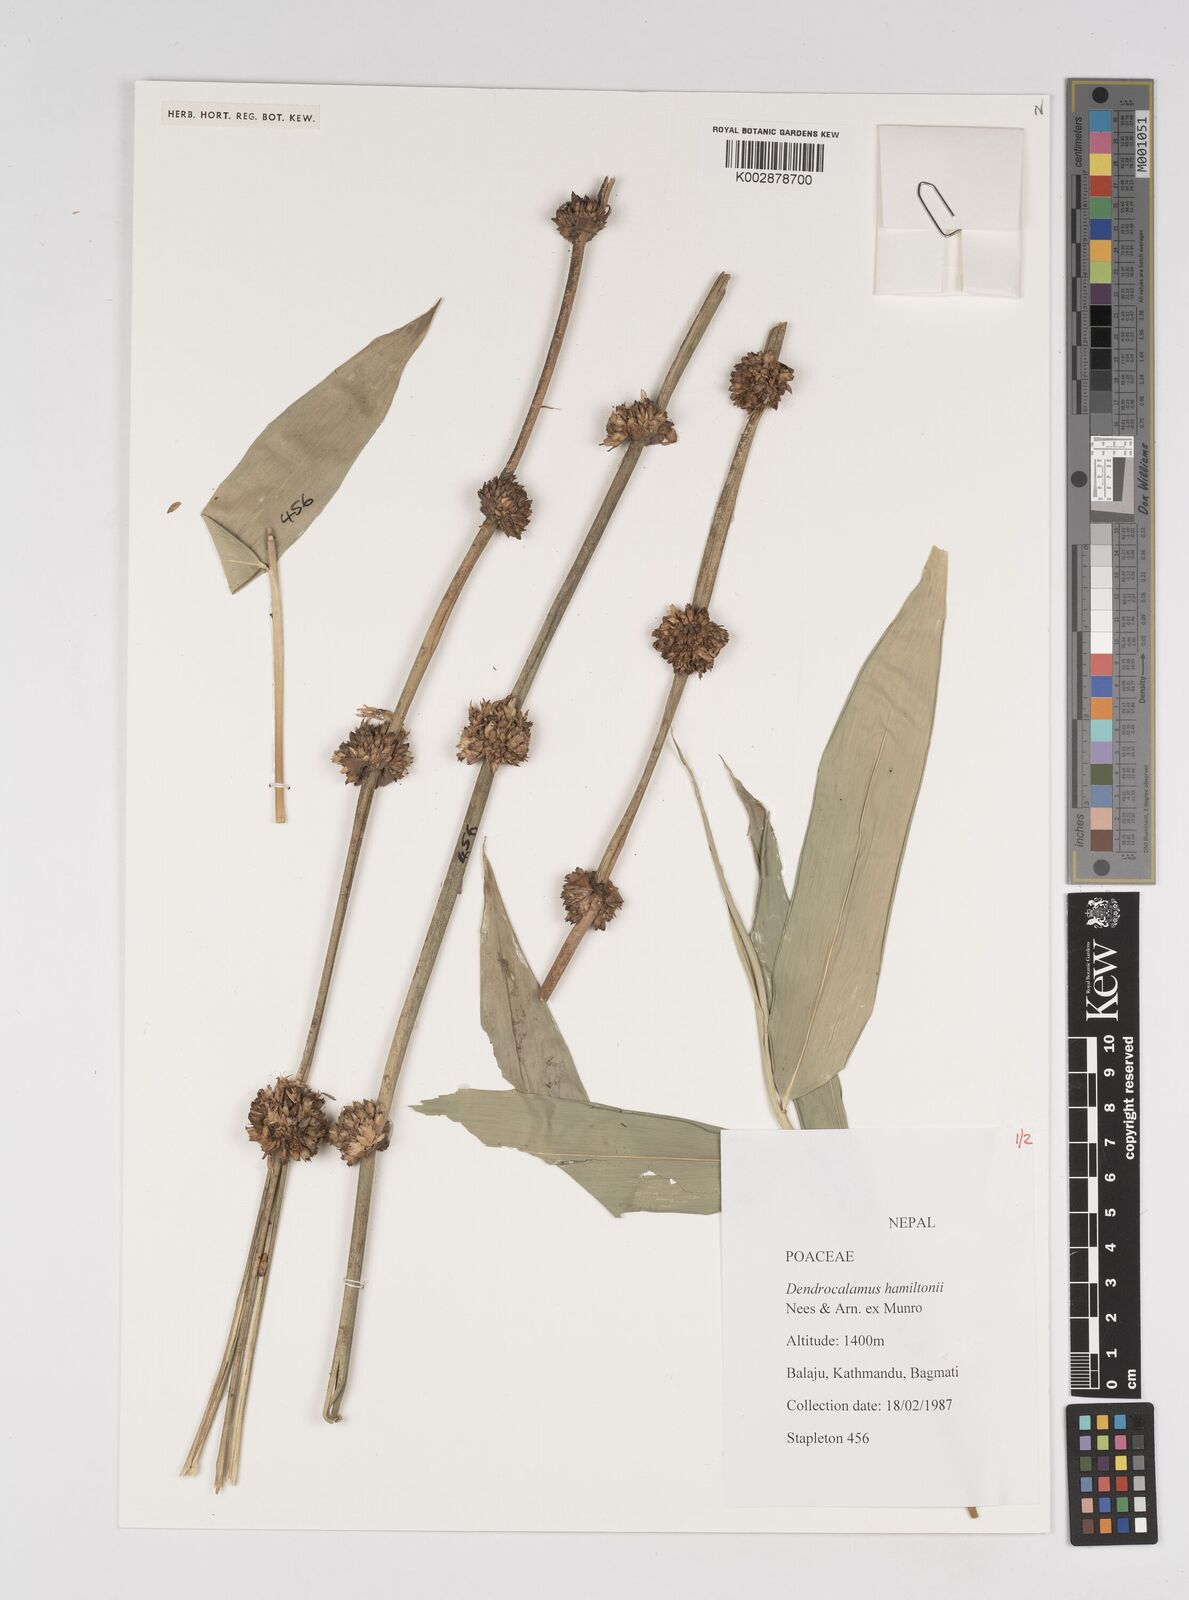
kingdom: Plantae
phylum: Tracheophyta
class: Liliopsida
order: Poales
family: Poaceae
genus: Dendrocalamus
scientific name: Dendrocalamus hamiltonii
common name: Tama bamboo
